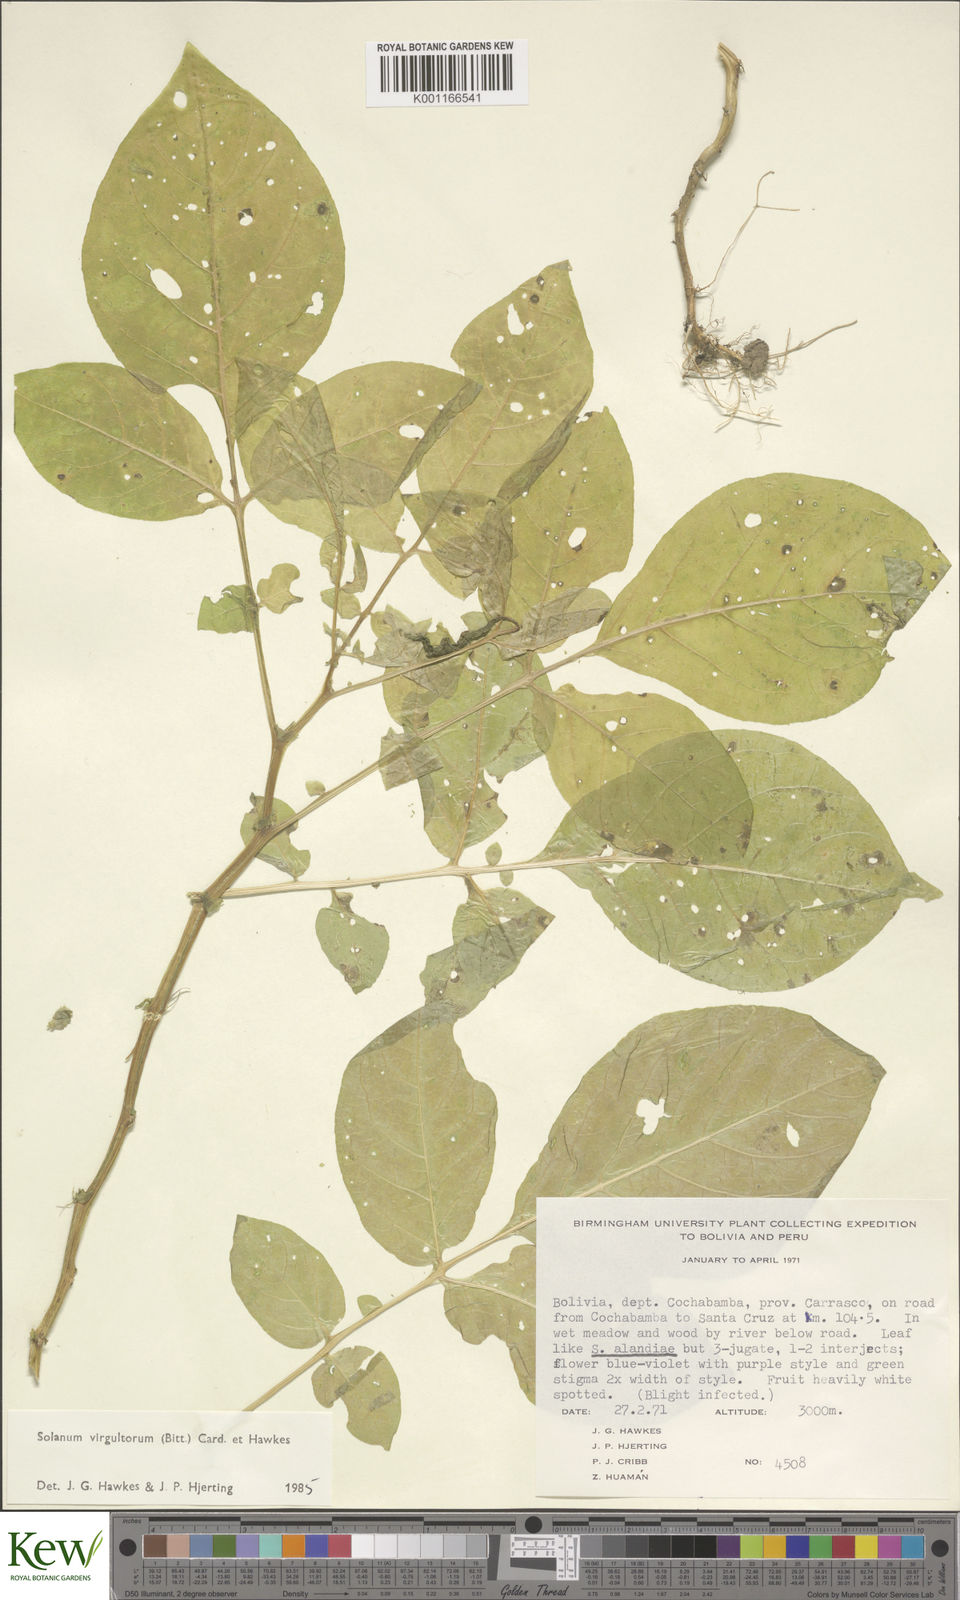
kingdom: Plantae
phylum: Tracheophyta
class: Magnoliopsida
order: Solanales
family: Solanaceae
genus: Solanum
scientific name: Solanum
